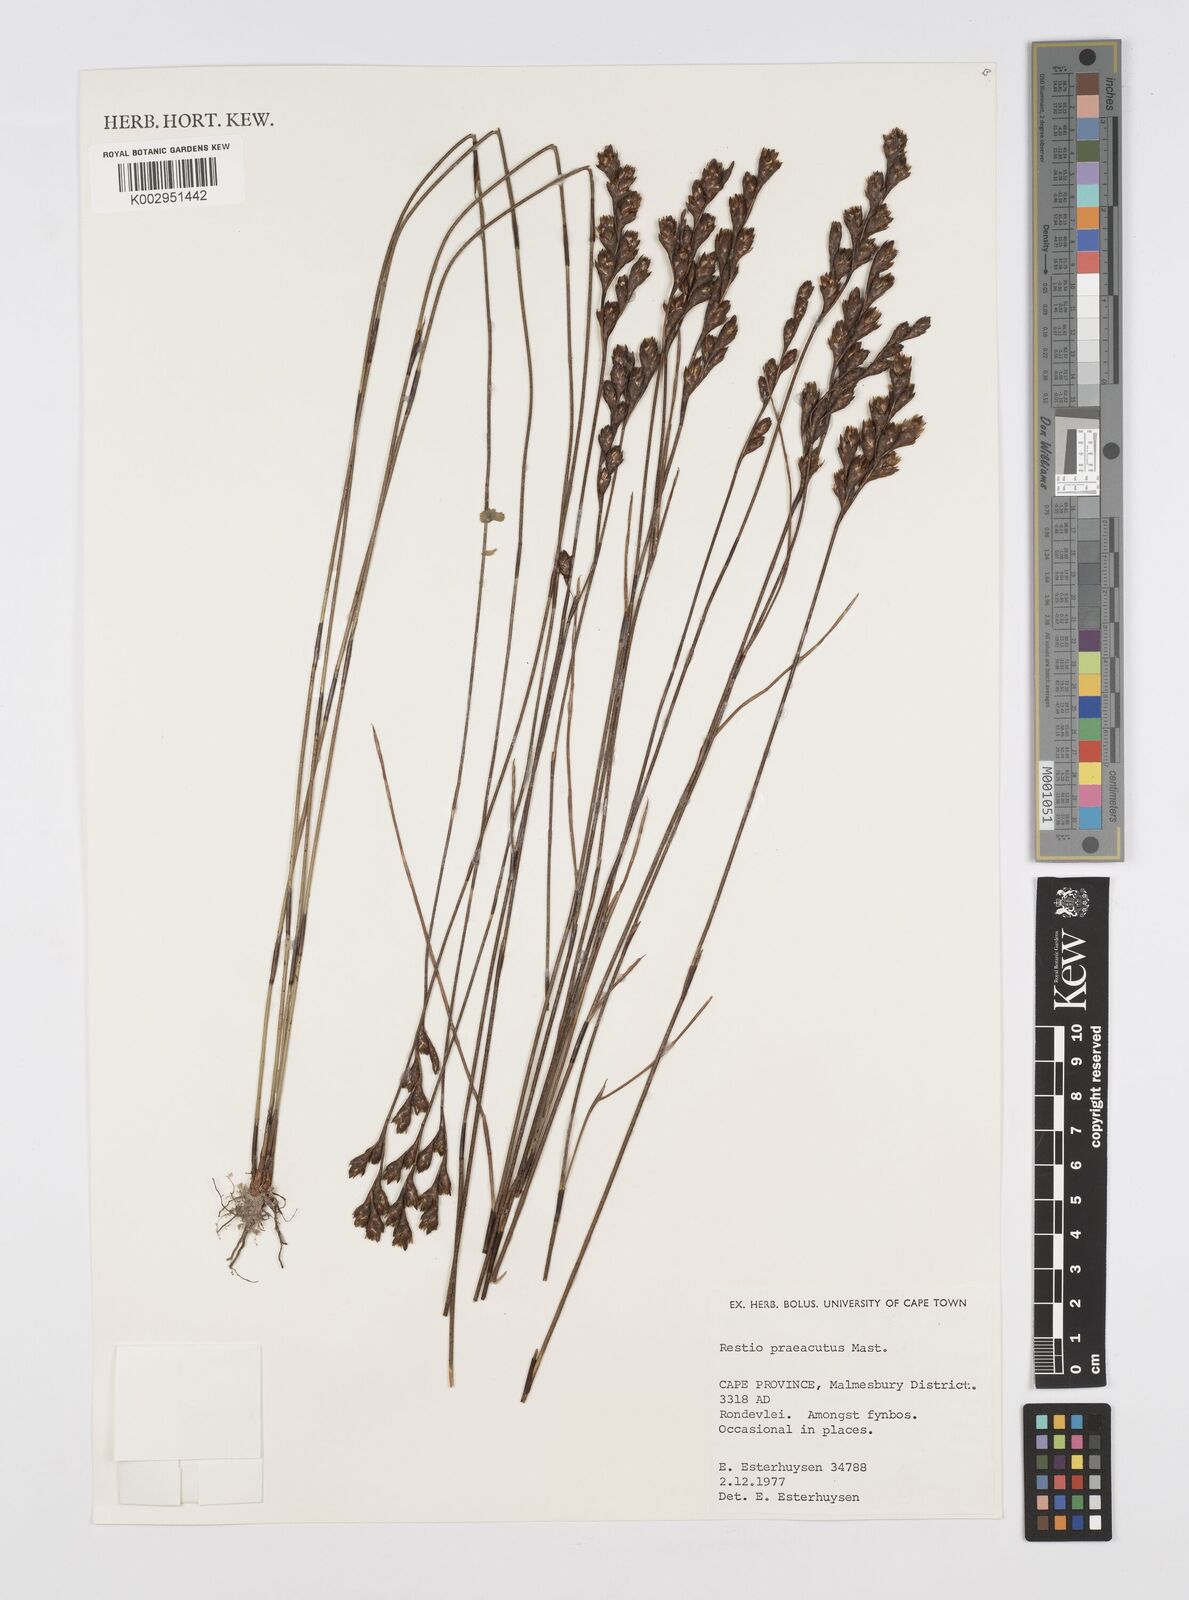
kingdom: Plantae
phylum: Tracheophyta
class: Liliopsida
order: Poales
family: Restionaceae
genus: Restio
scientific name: Restio
